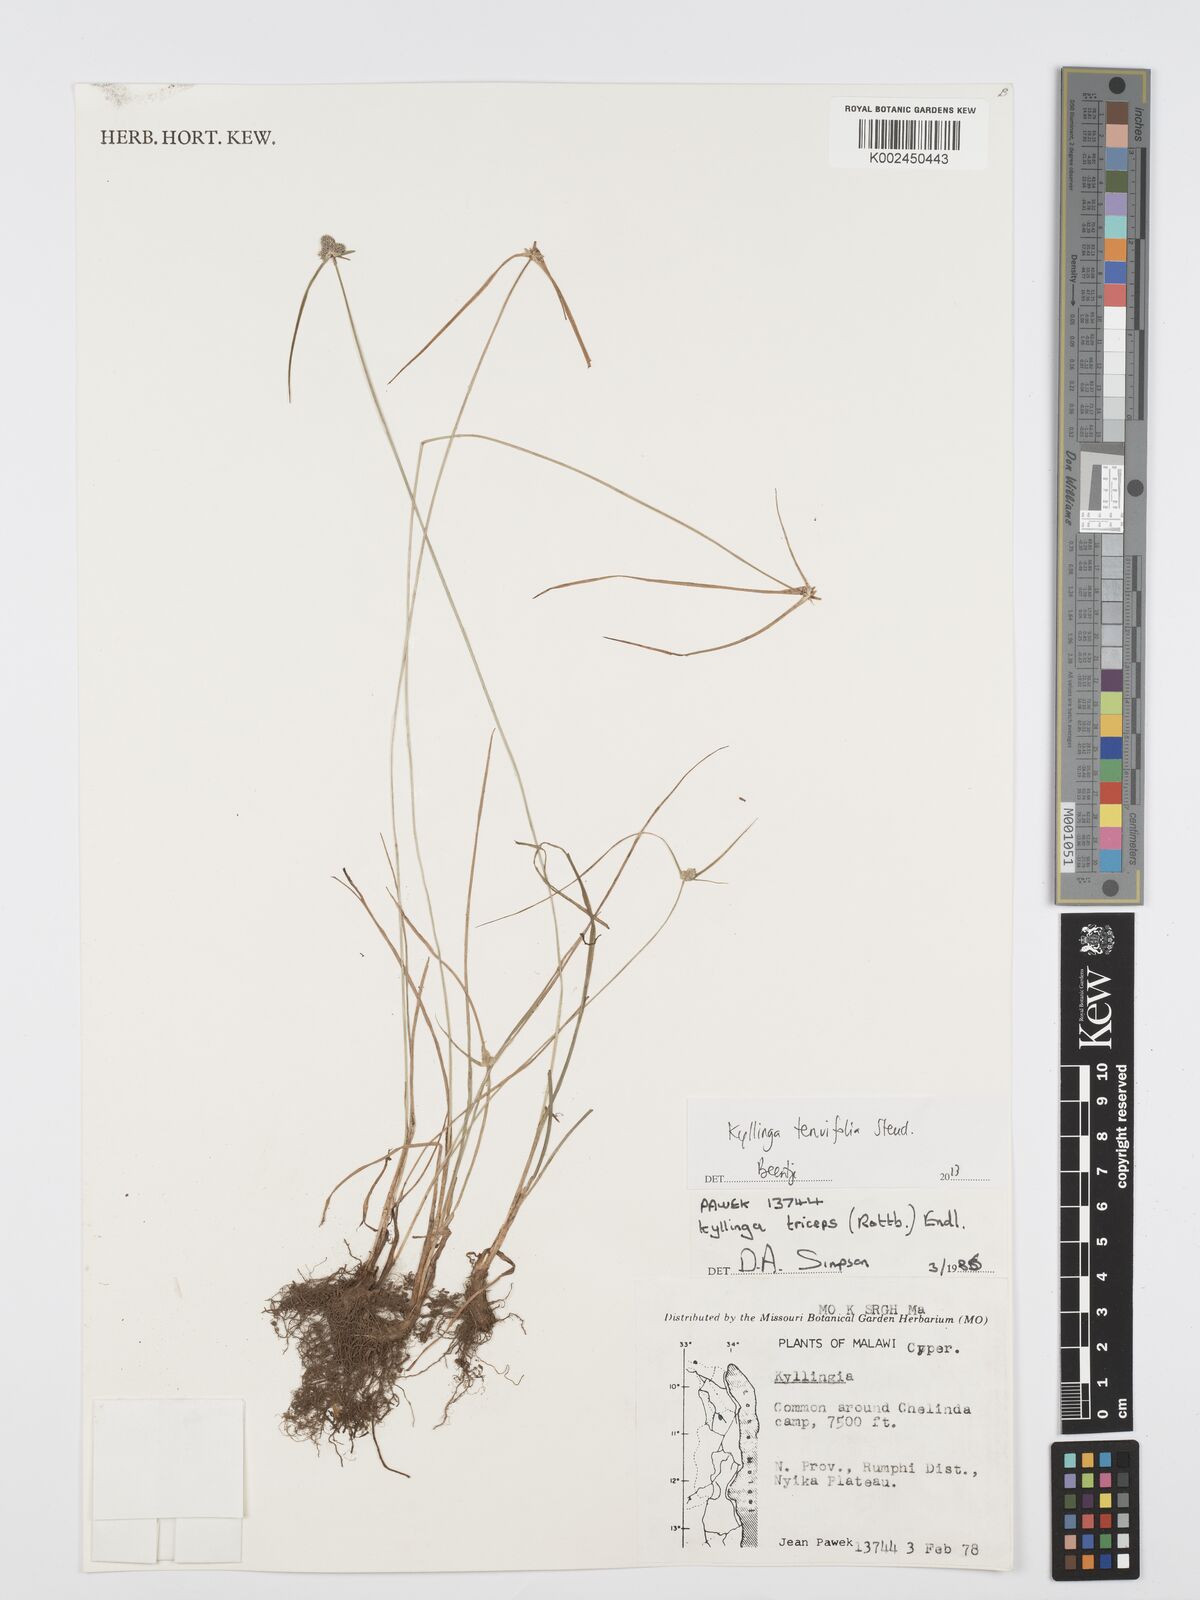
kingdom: Plantae
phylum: Tracheophyta
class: Liliopsida
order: Poales
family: Cyperaceae
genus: Cyperus
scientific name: Cyperus tenuifolius
